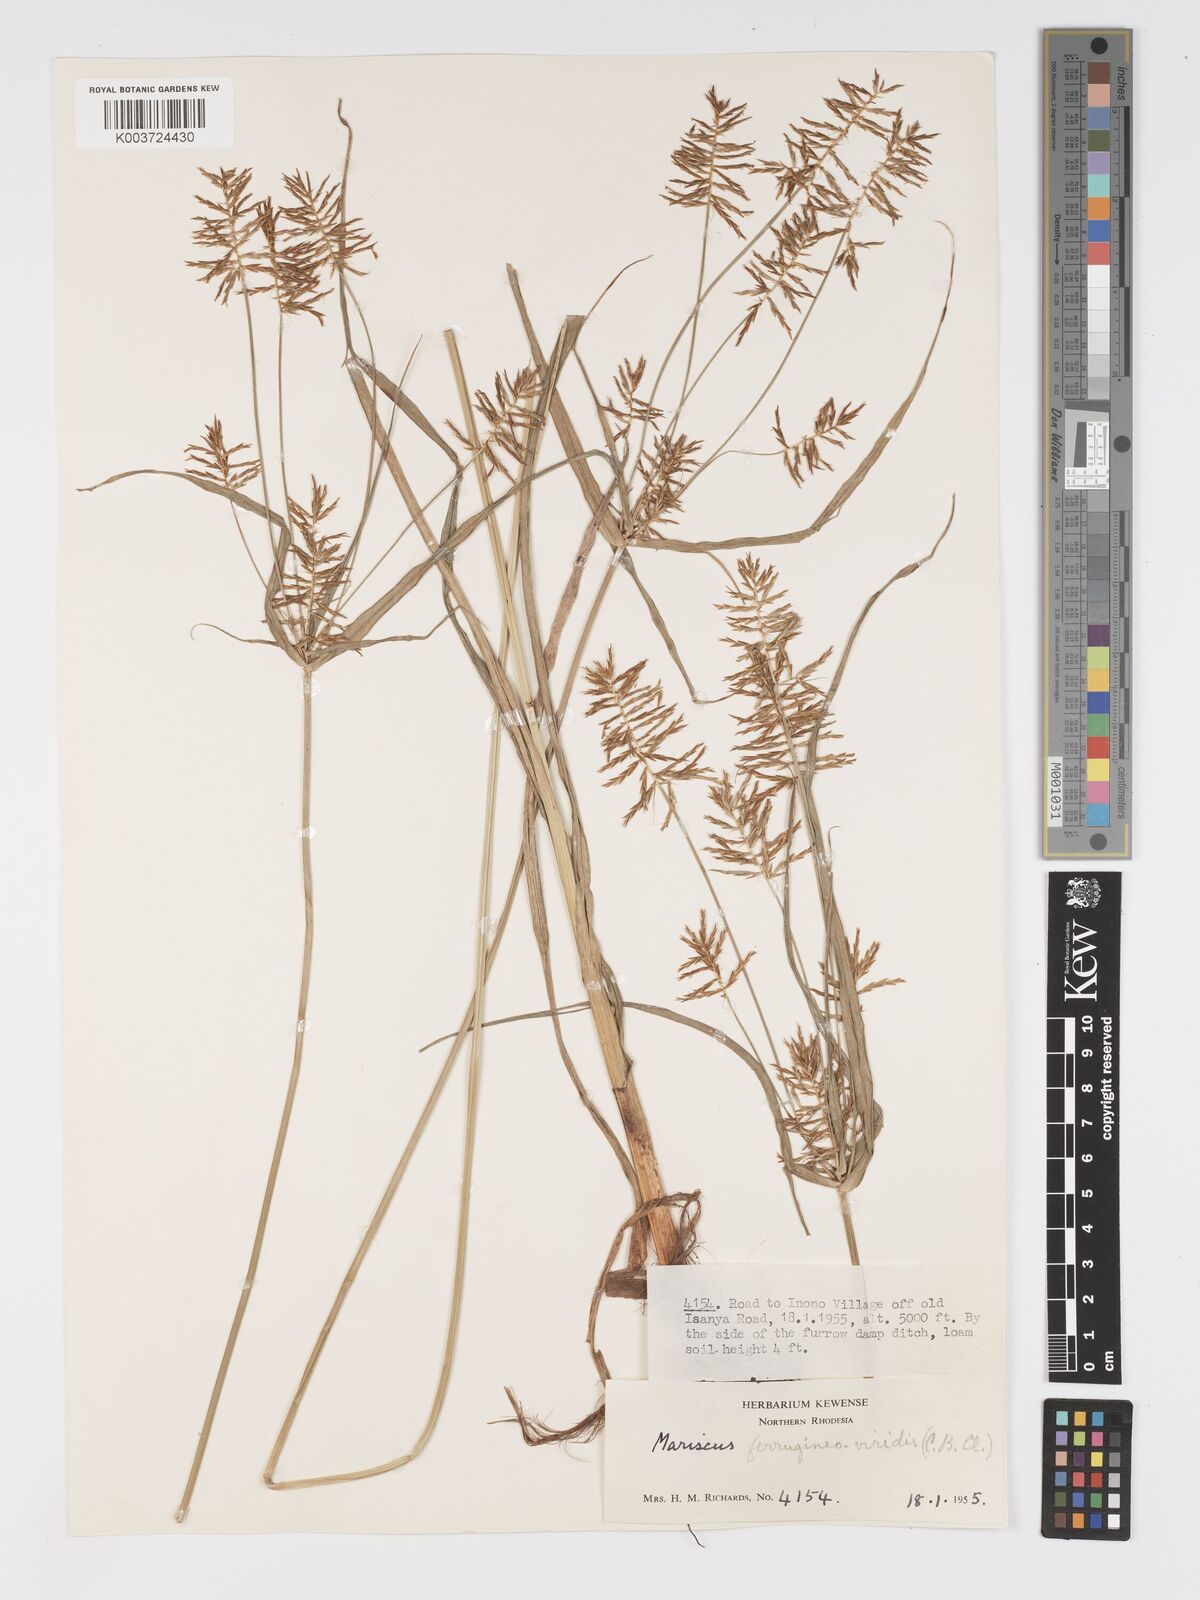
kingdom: Plantae
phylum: Tracheophyta
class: Liliopsida
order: Poales
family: Cyperaceae
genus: Cyperus
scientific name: Cyperus ferrugineoviridis
